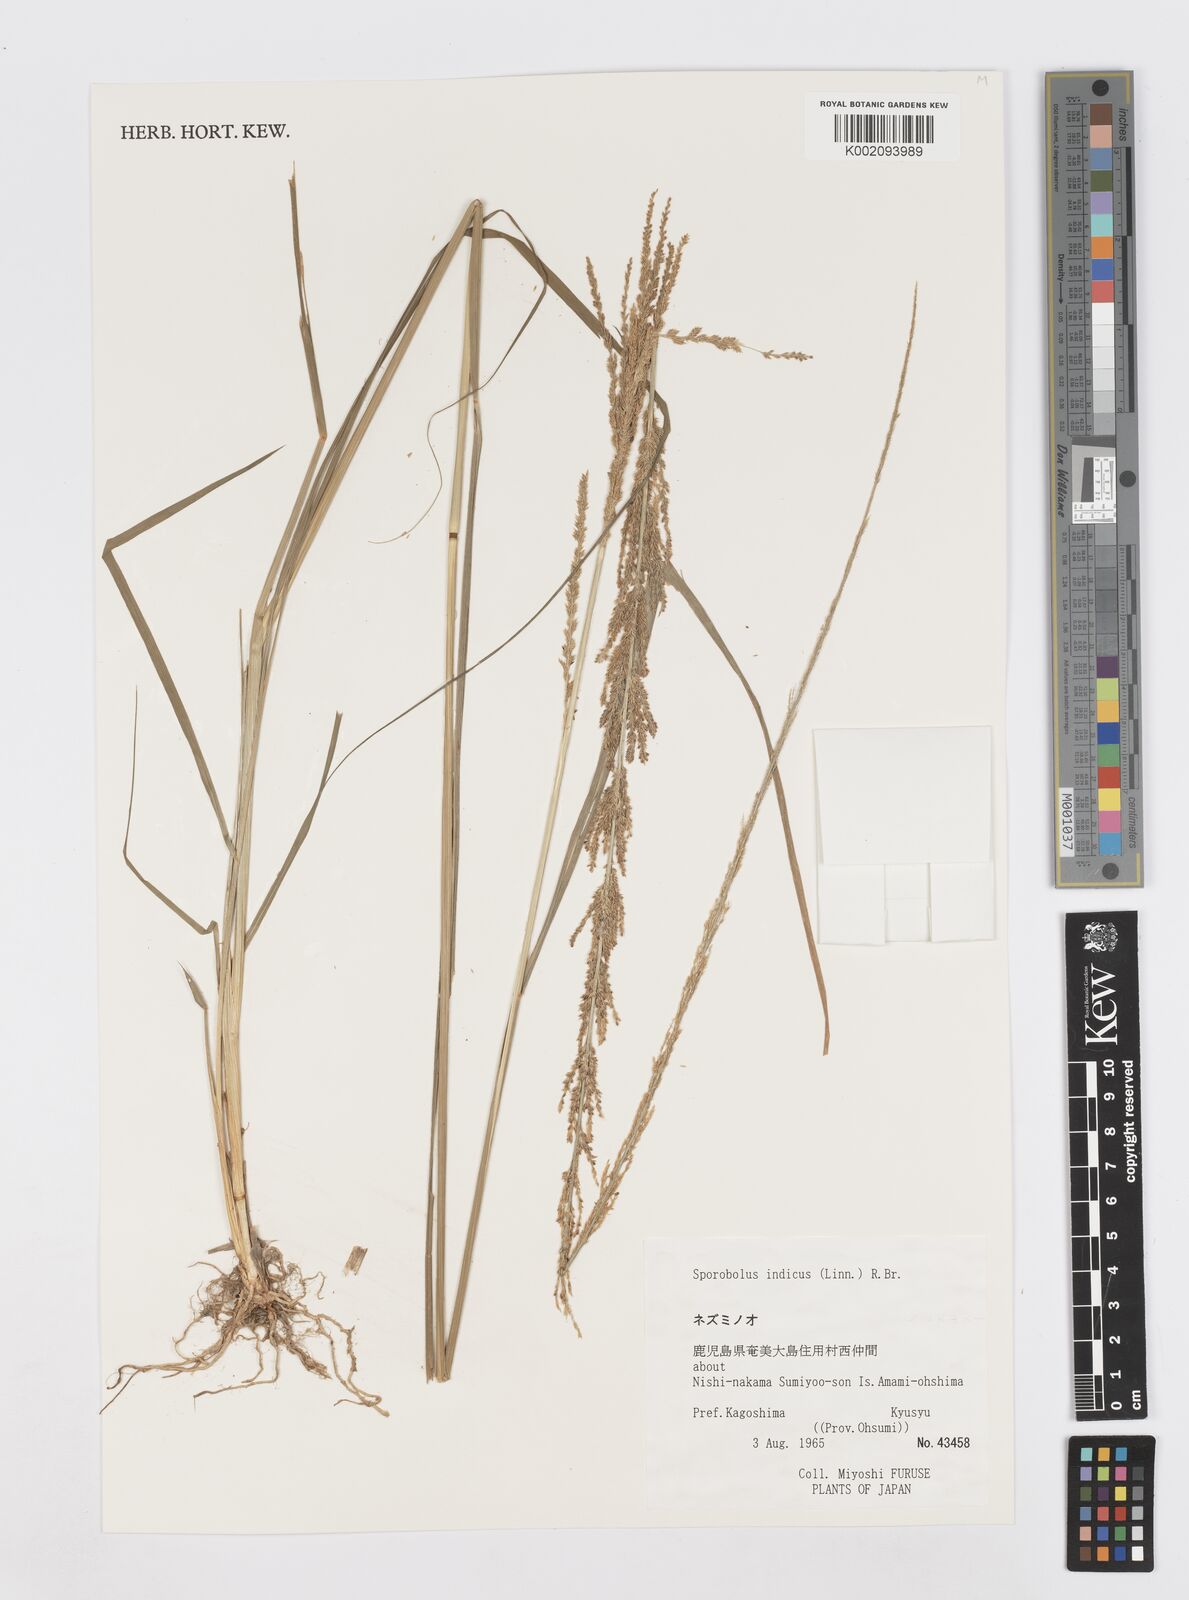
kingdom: Plantae
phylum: Tracheophyta
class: Liliopsida
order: Poales
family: Poaceae
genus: Sporobolus
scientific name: Sporobolus fertilis
